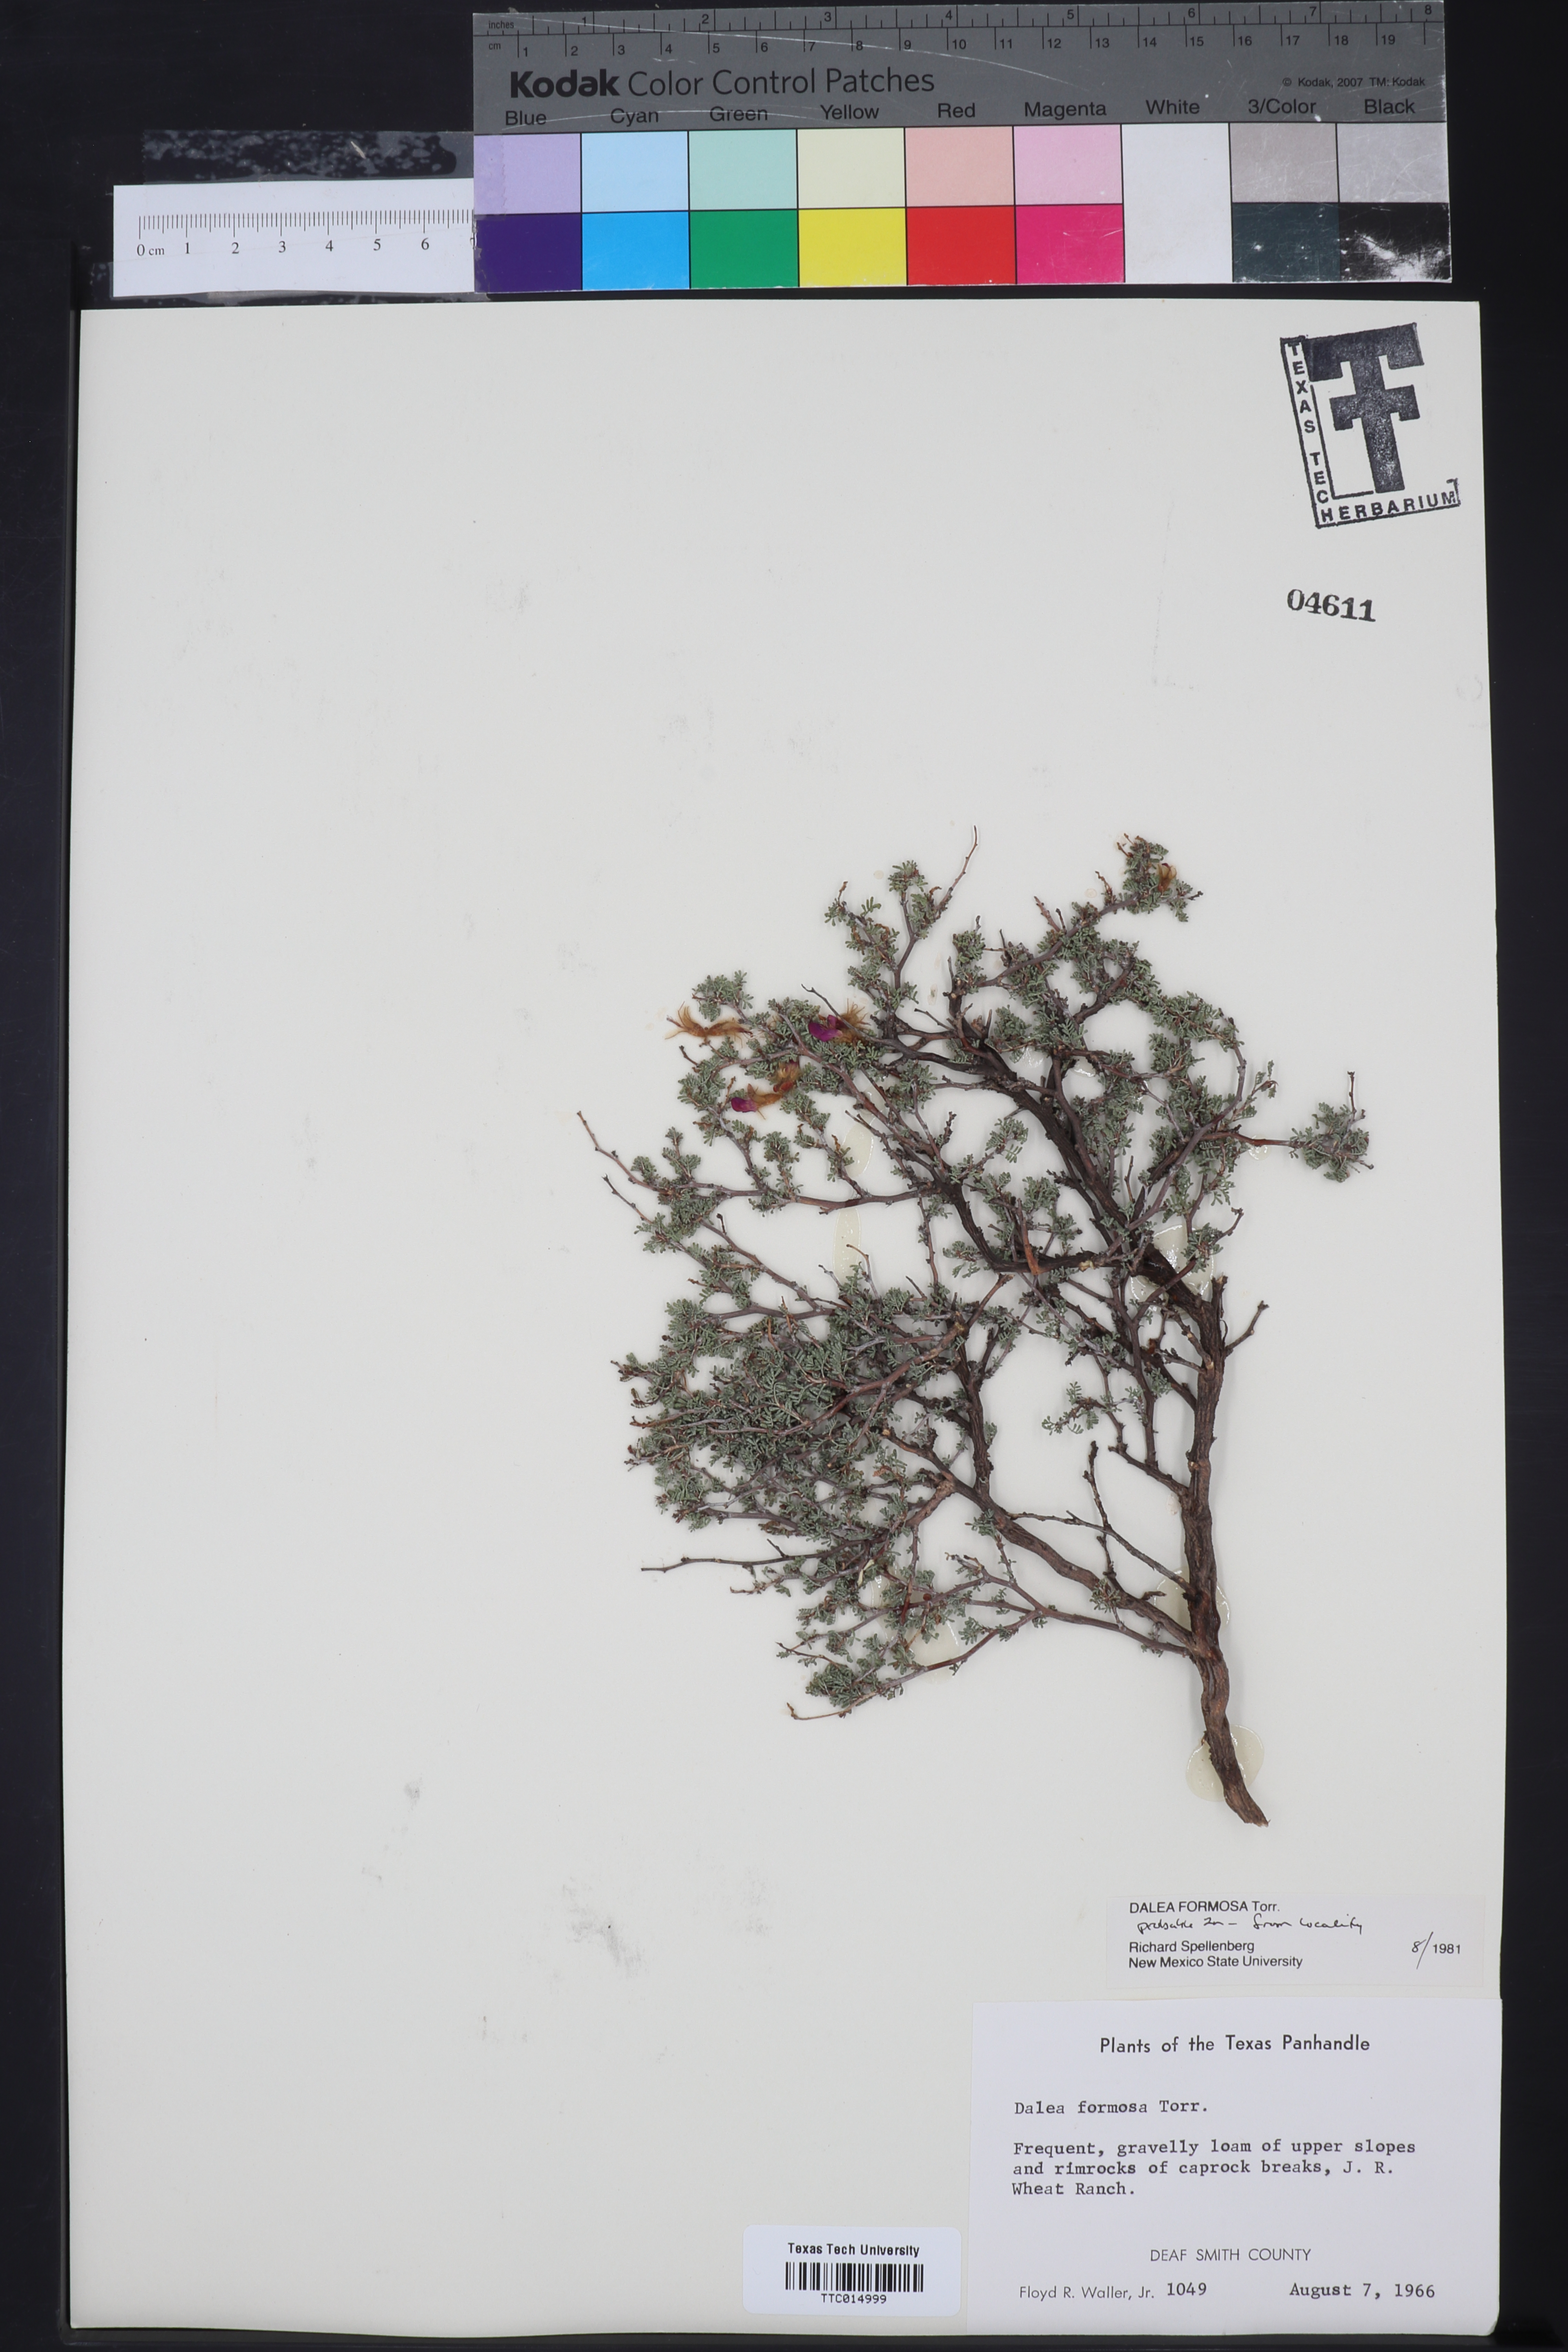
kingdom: Plantae
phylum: Tracheophyta
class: Magnoliopsida
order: Fabales
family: Fabaceae
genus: Dalea
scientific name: Dalea formosa
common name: Feather-plume dalea
